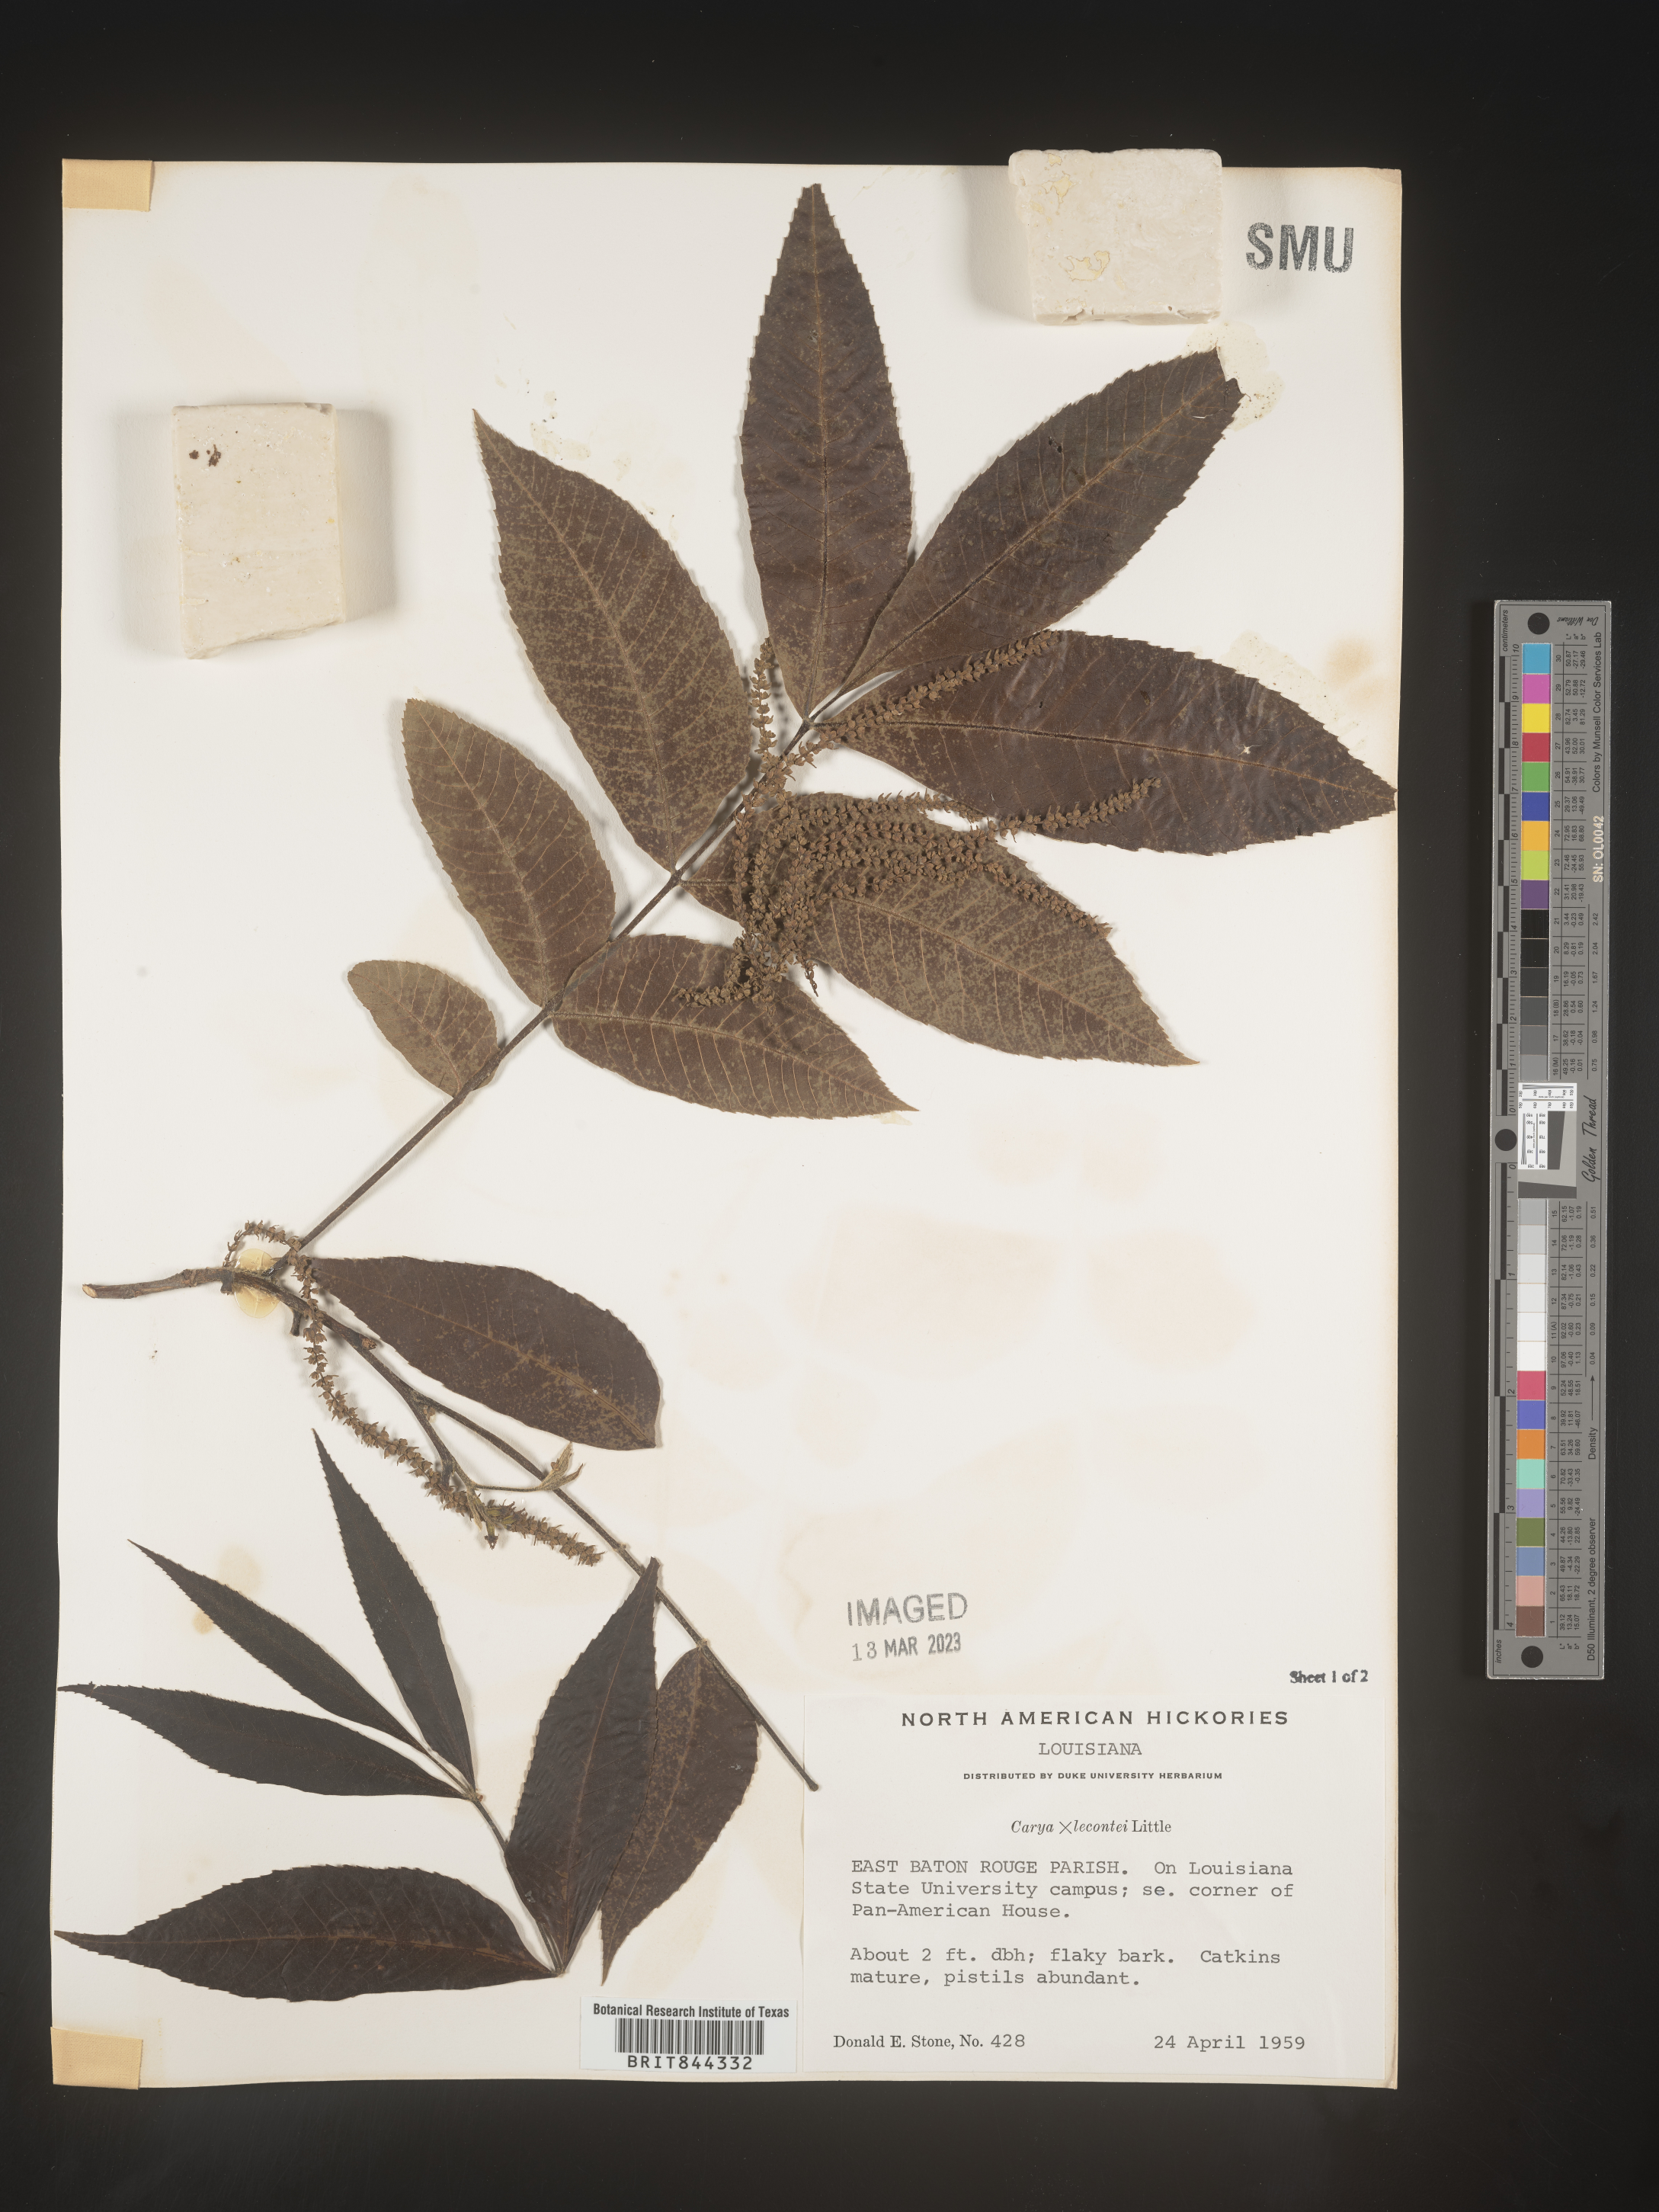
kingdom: Plantae
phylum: Tracheophyta
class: Magnoliopsida
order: Fagales
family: Juglandaceae
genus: Carya
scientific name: Carya
